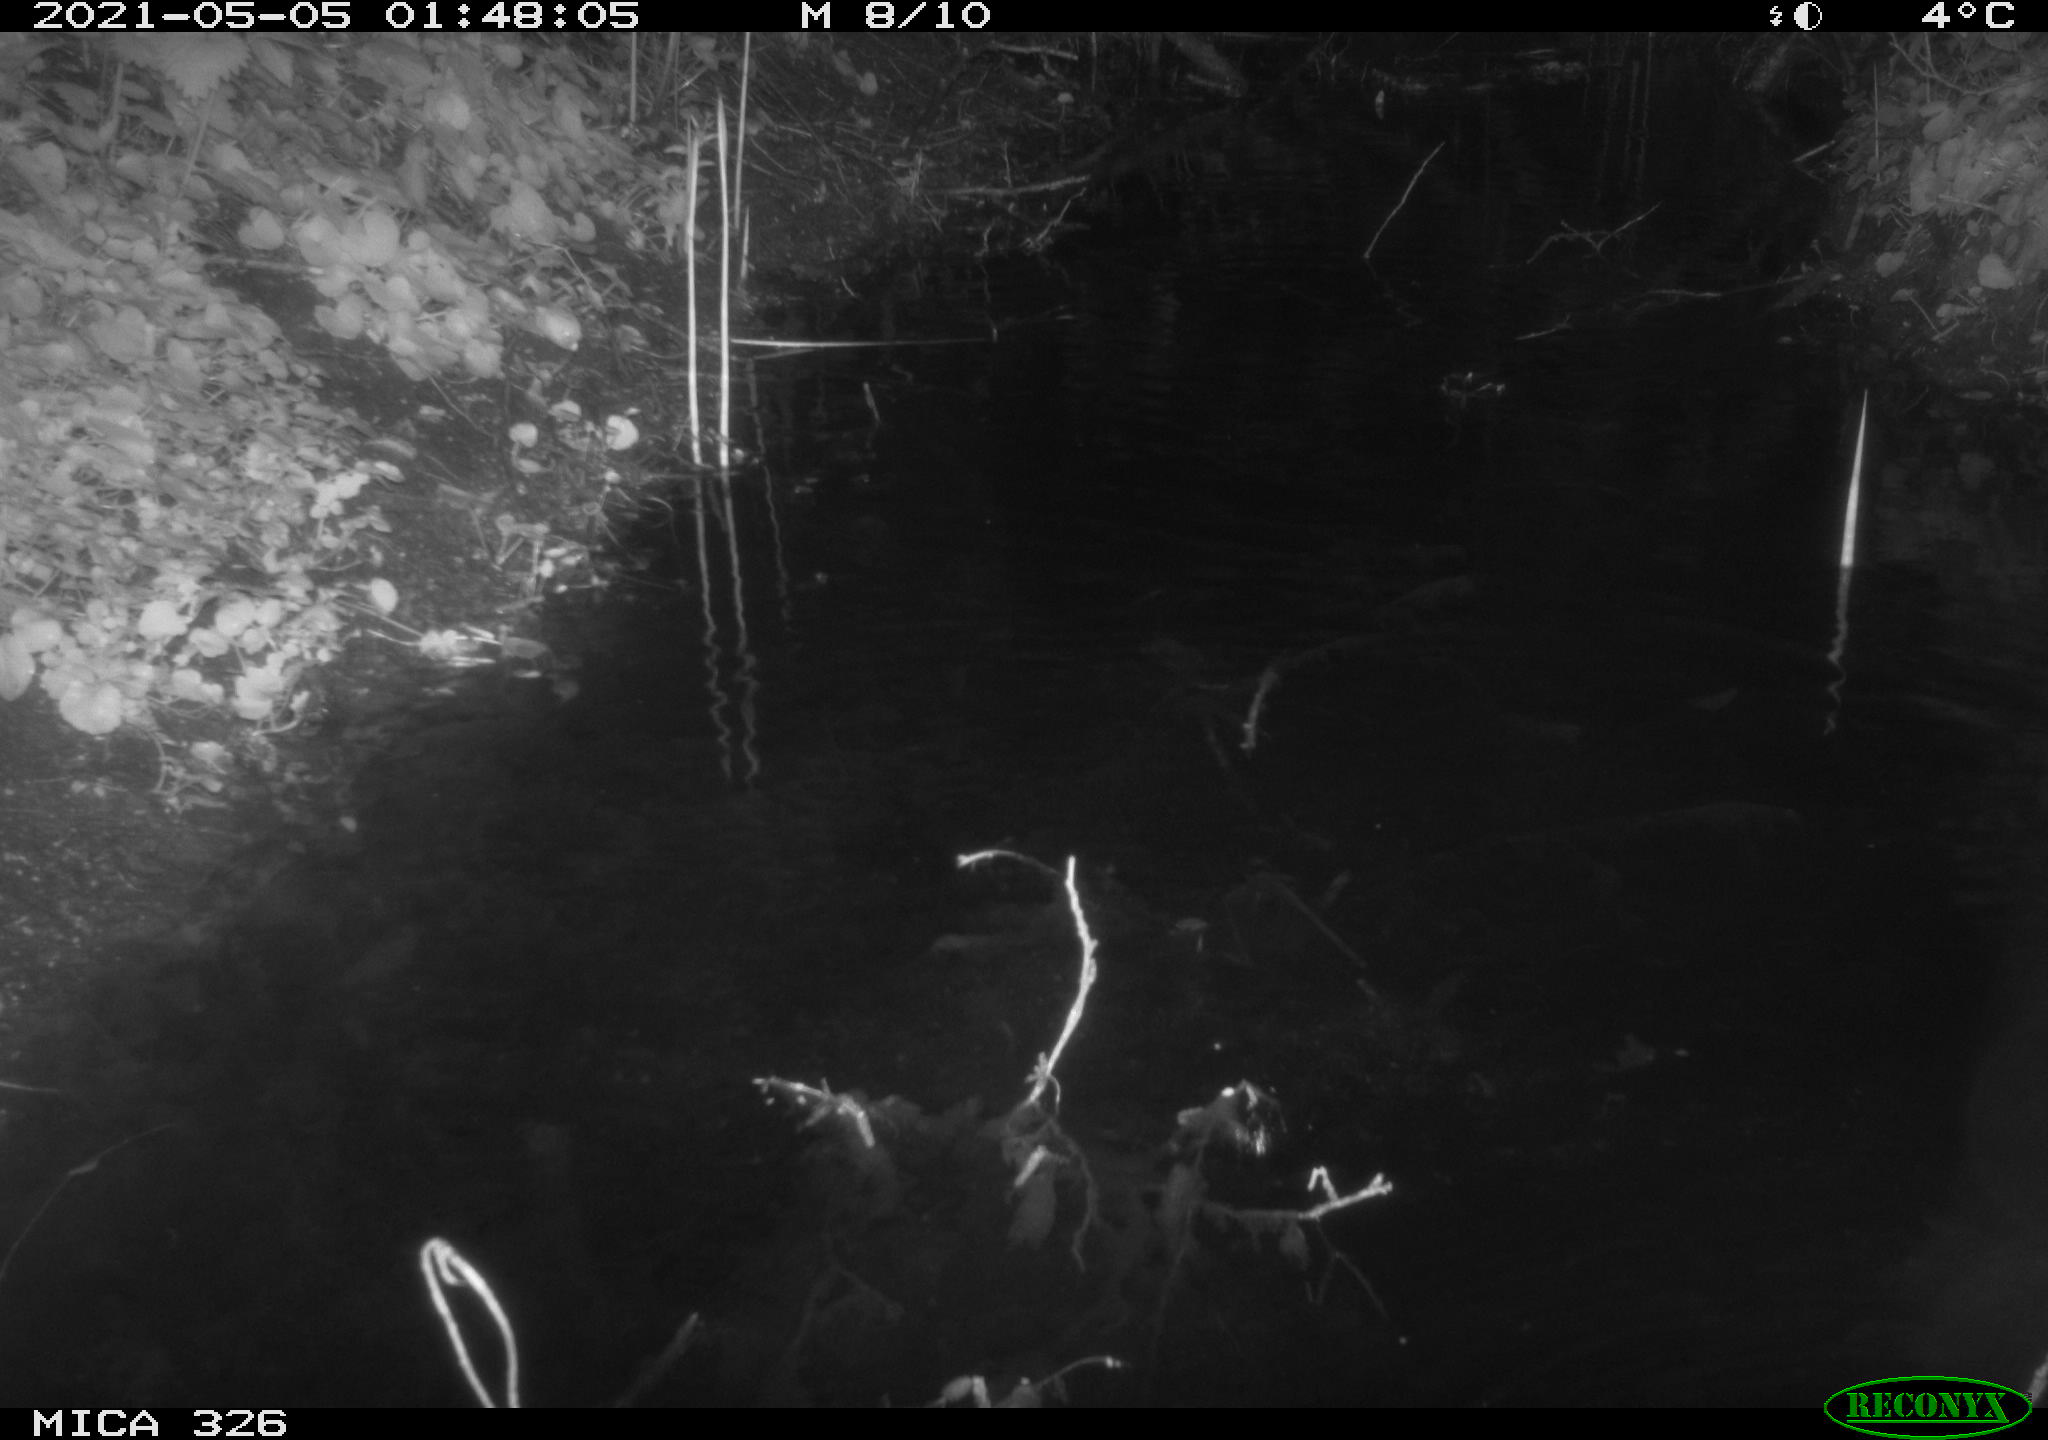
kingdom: Animalia
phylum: Chordata
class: Mammalia
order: Rodentia
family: Muridae
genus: Rattus
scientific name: Rattus norvegicus
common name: Brown rat
